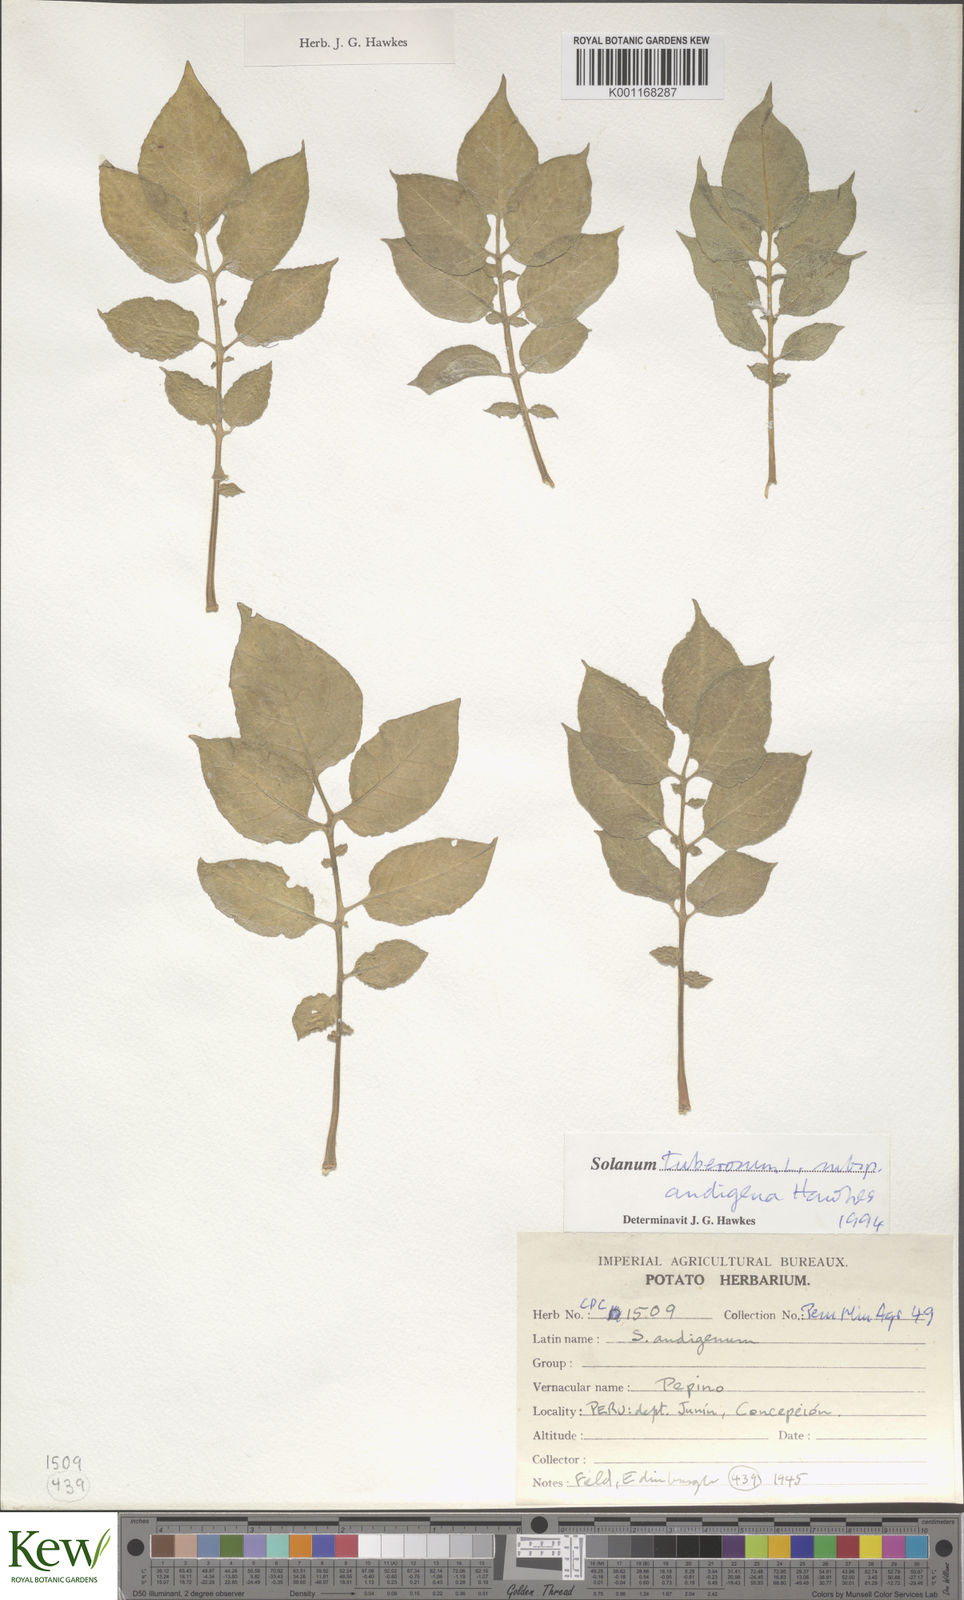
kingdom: Plantae
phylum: Tracheophyta
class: Magnoliopsida
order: Solanales
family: Solanaceae
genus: Solanum
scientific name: Solanum tuberosum
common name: Potato
